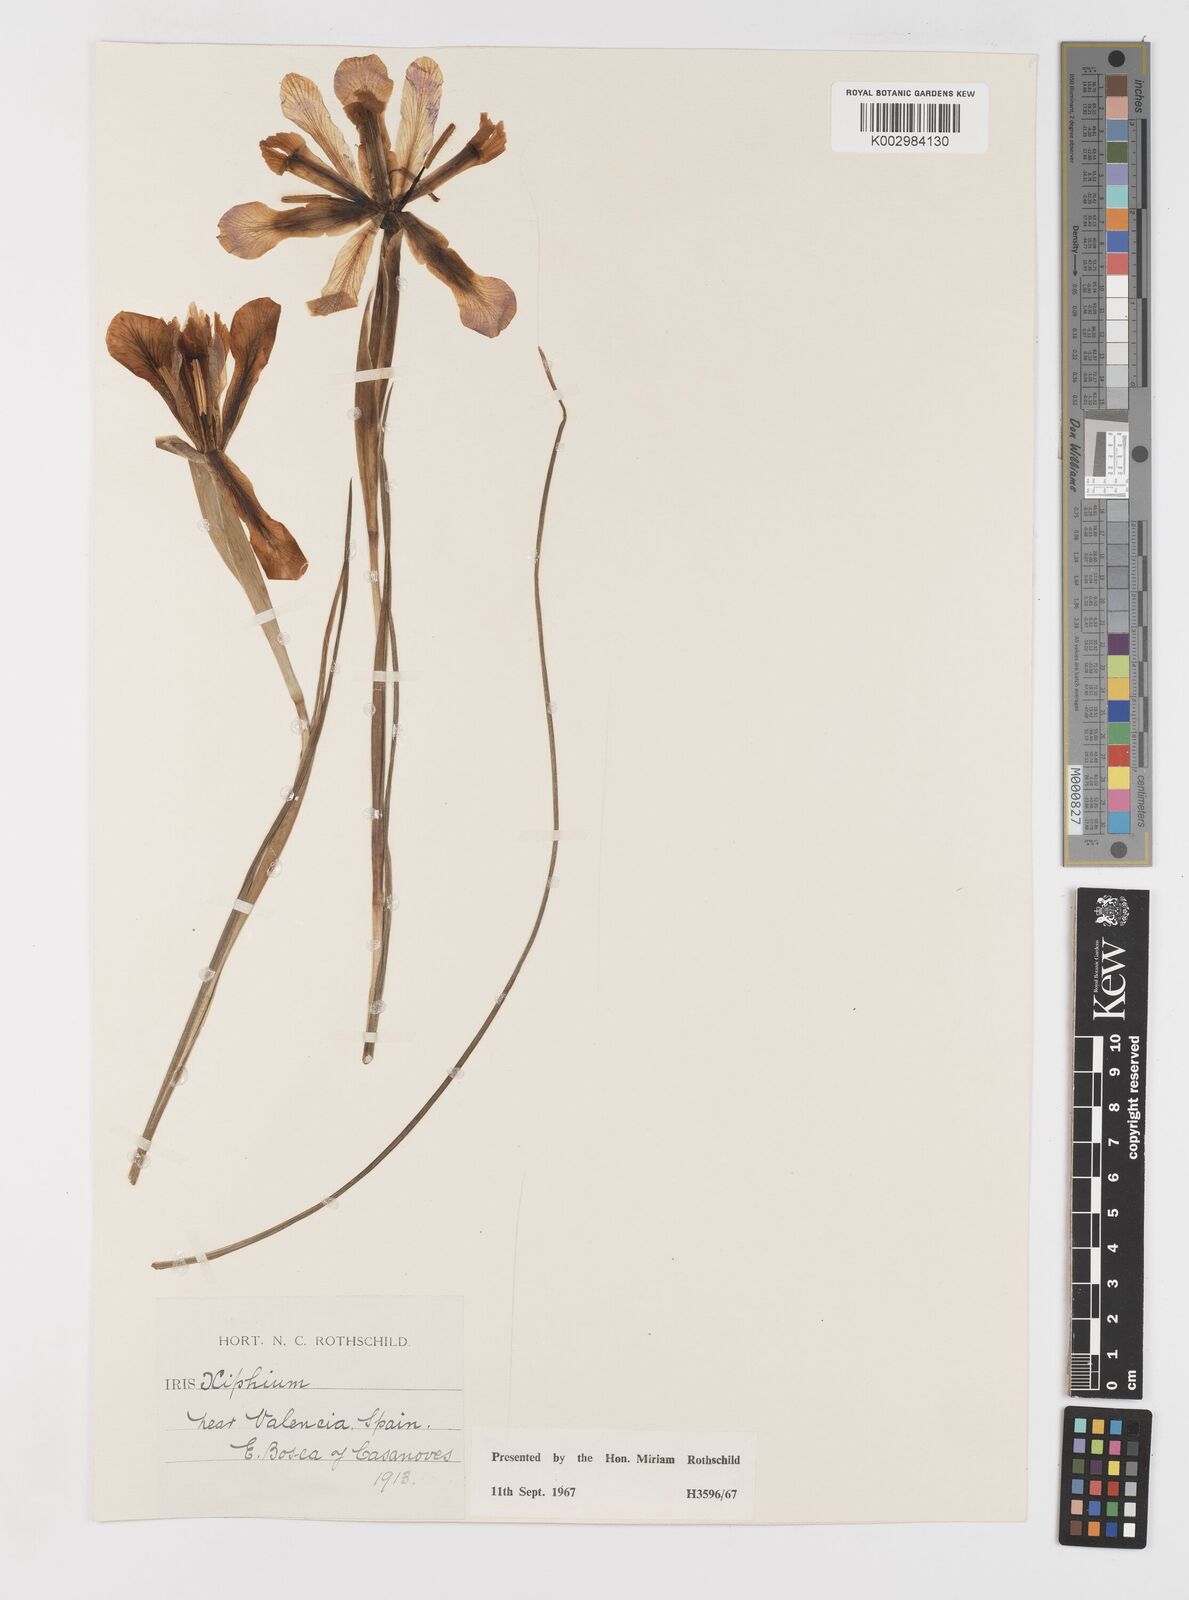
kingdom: Plantae
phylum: Tracheophyta
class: Liliopsida
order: Asparagales
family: Iridaceae
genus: Iris
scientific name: Iris xiphium
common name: Spanish iris
